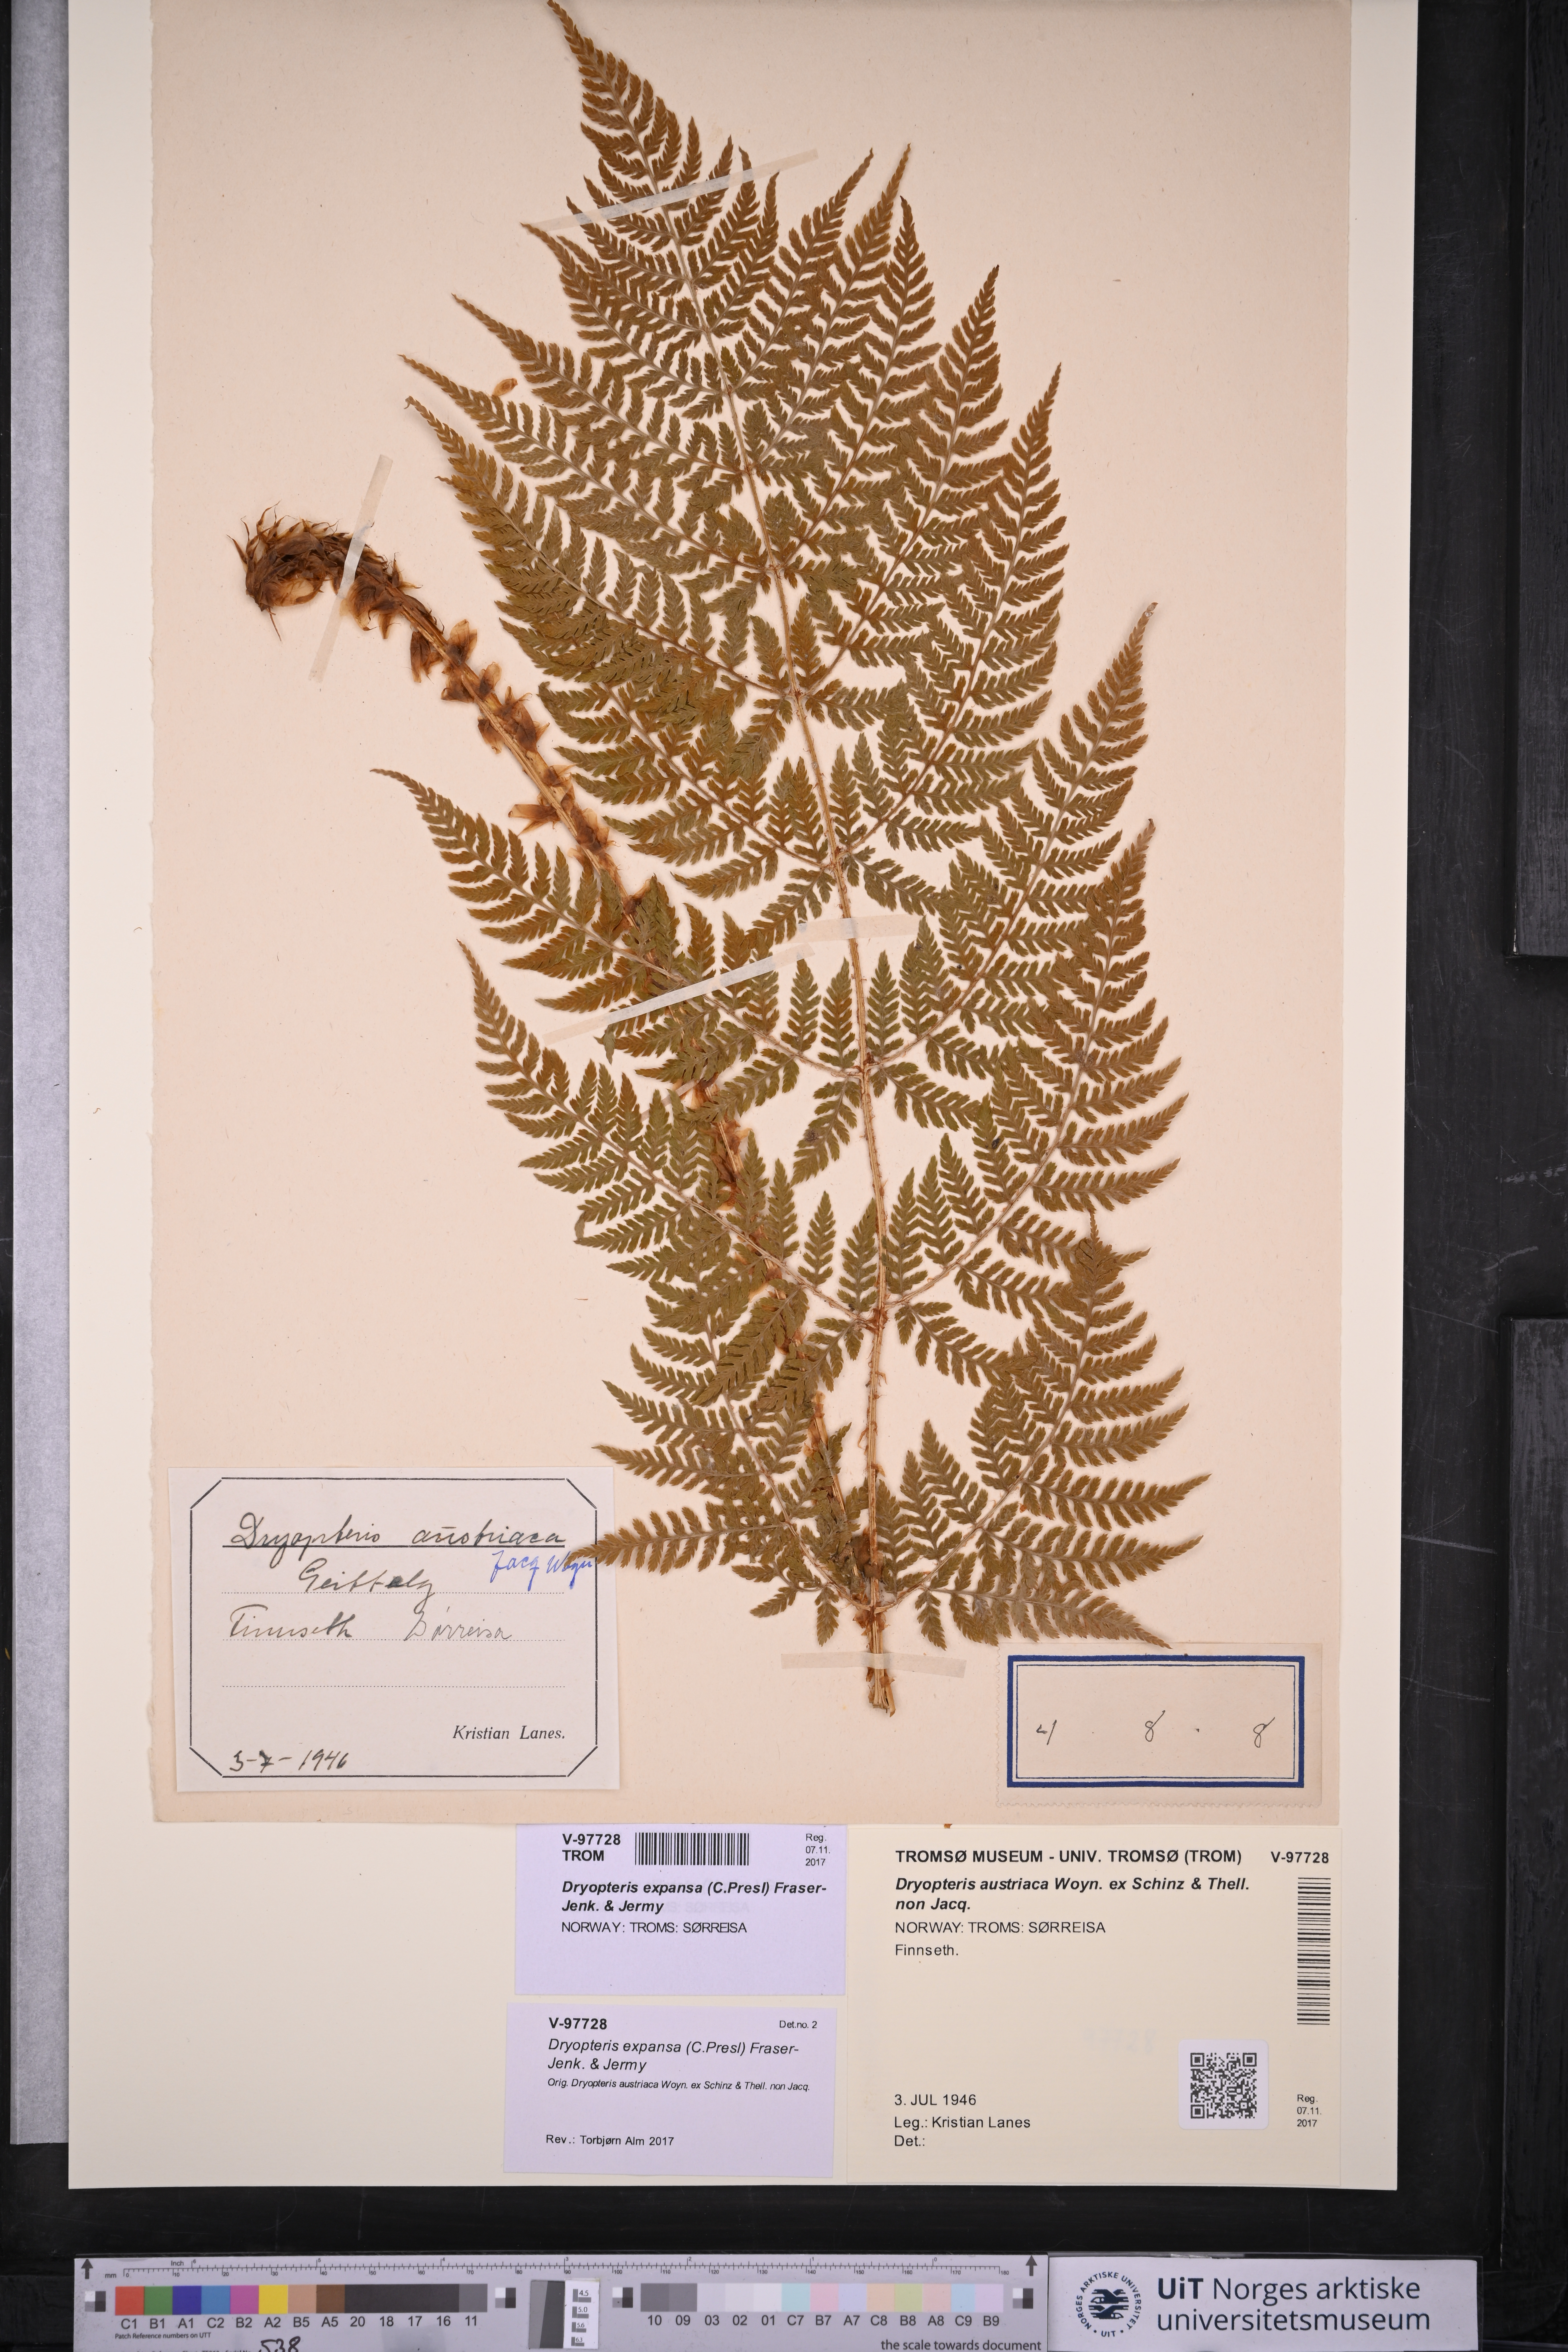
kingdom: Plantae
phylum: Tracheophyta
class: Polypodiopsida
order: Polypodiales
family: Dryopteridaceae
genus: Dryopteris
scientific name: Dryopteris expansa
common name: Northern buckler fern
